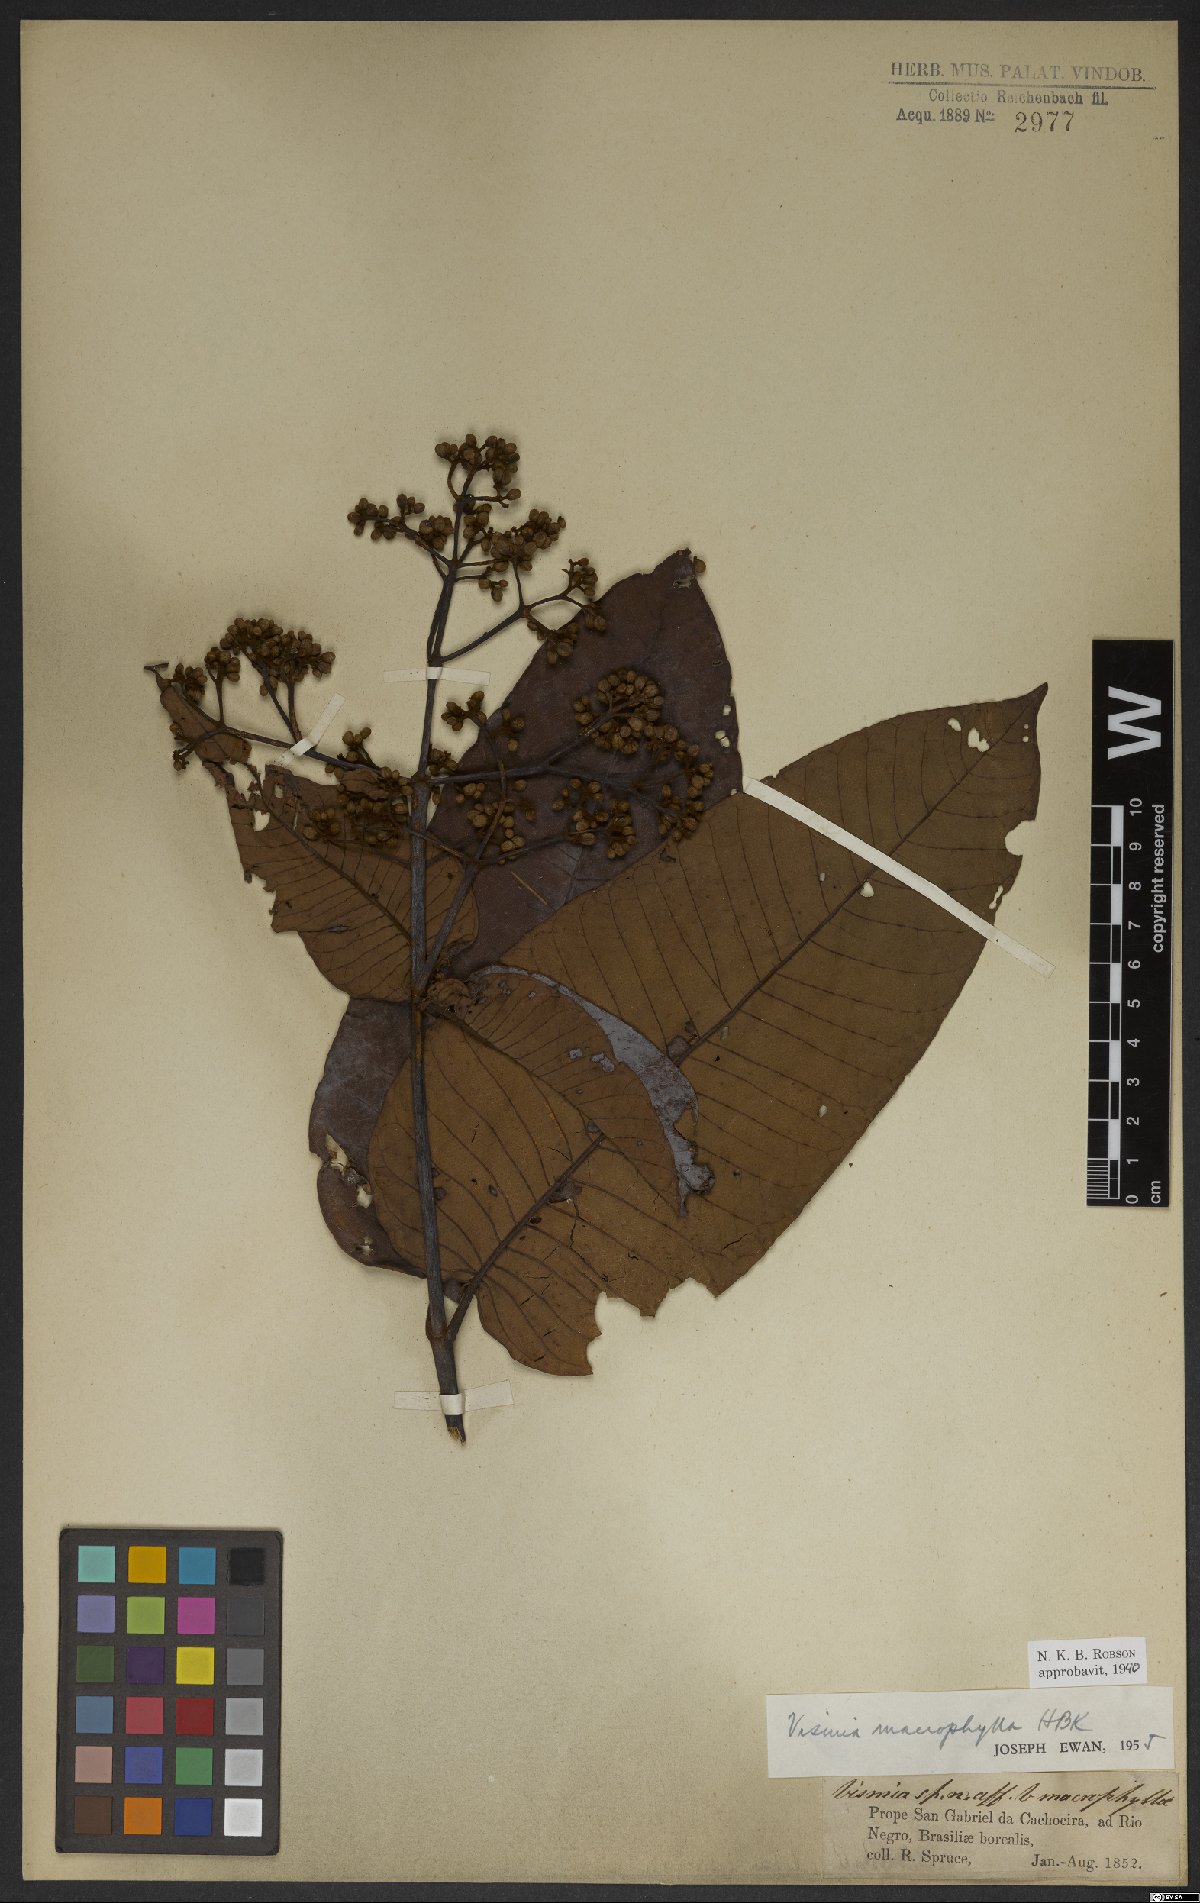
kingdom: Plantae
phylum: Tracheophyta
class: Magnoliopsida
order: Malpighiales
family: Hypericaceae
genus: Vismia
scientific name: Vismia macrophylla
